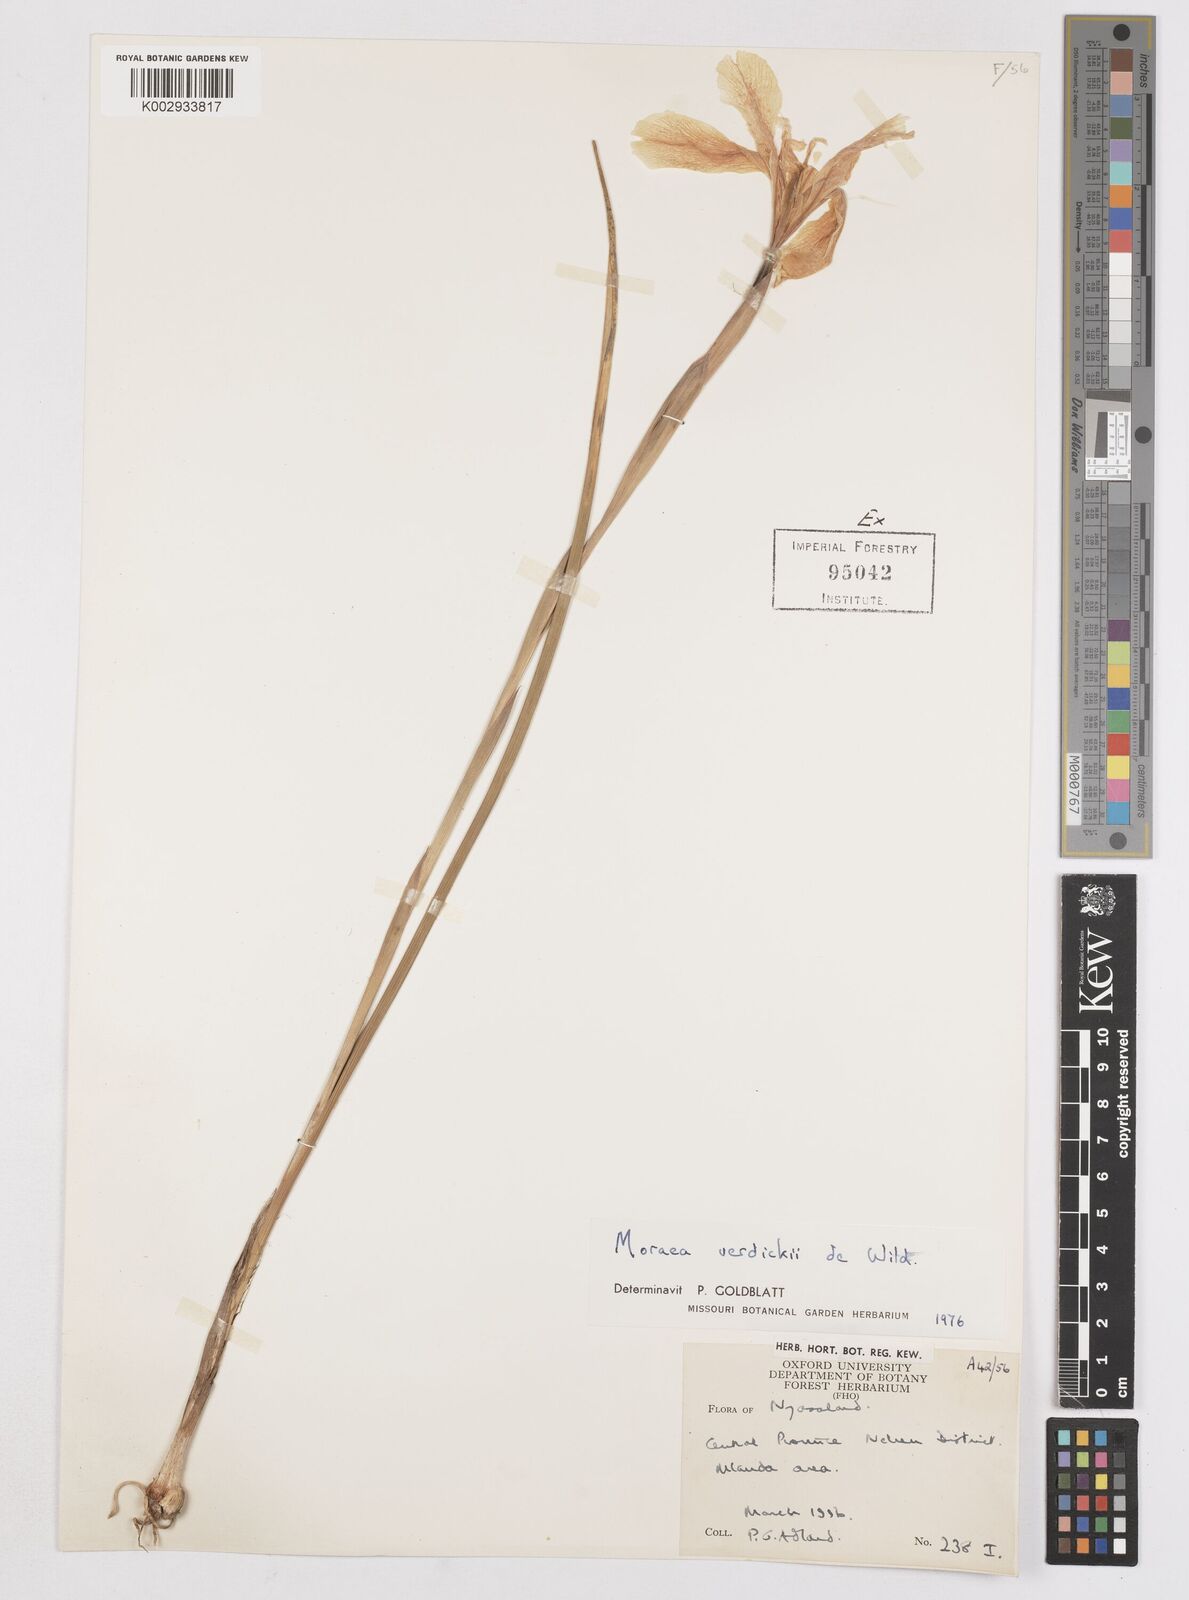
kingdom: Plantae
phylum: Tracheophyta
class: Liliopsida
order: Asparagales
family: Iridaceae
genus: Moraea
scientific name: Moraea verdickii
